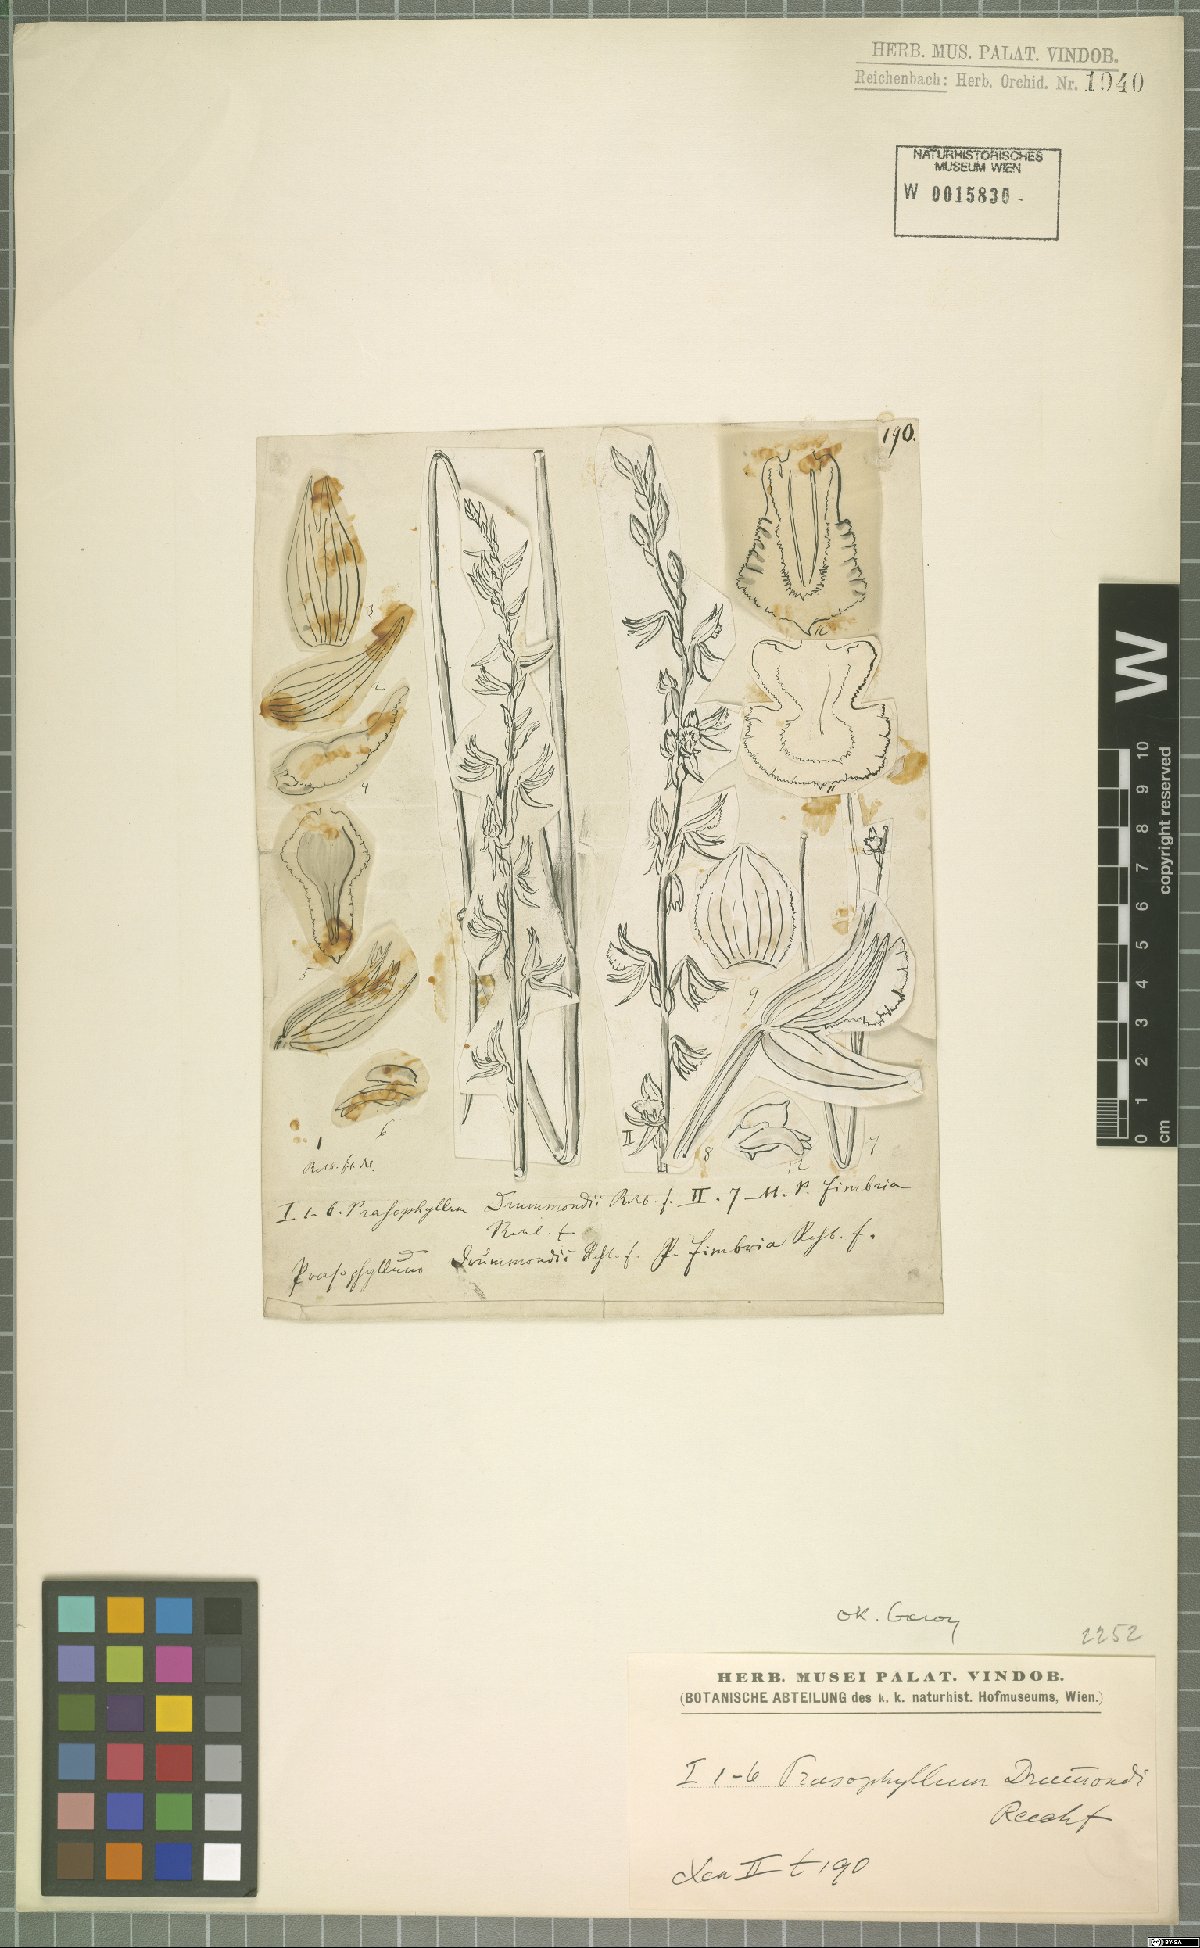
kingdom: Plantae
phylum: Tracheophyta
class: Liliopsida
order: Asparagales
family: Orchidaceae
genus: Prasophyllum
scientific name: Prasophyllum drummondii
